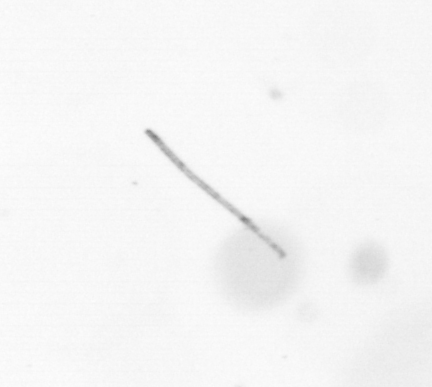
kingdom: Chromista
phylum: Ochrophyta
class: Bacillariophyceae
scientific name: Bacillariophyceae
